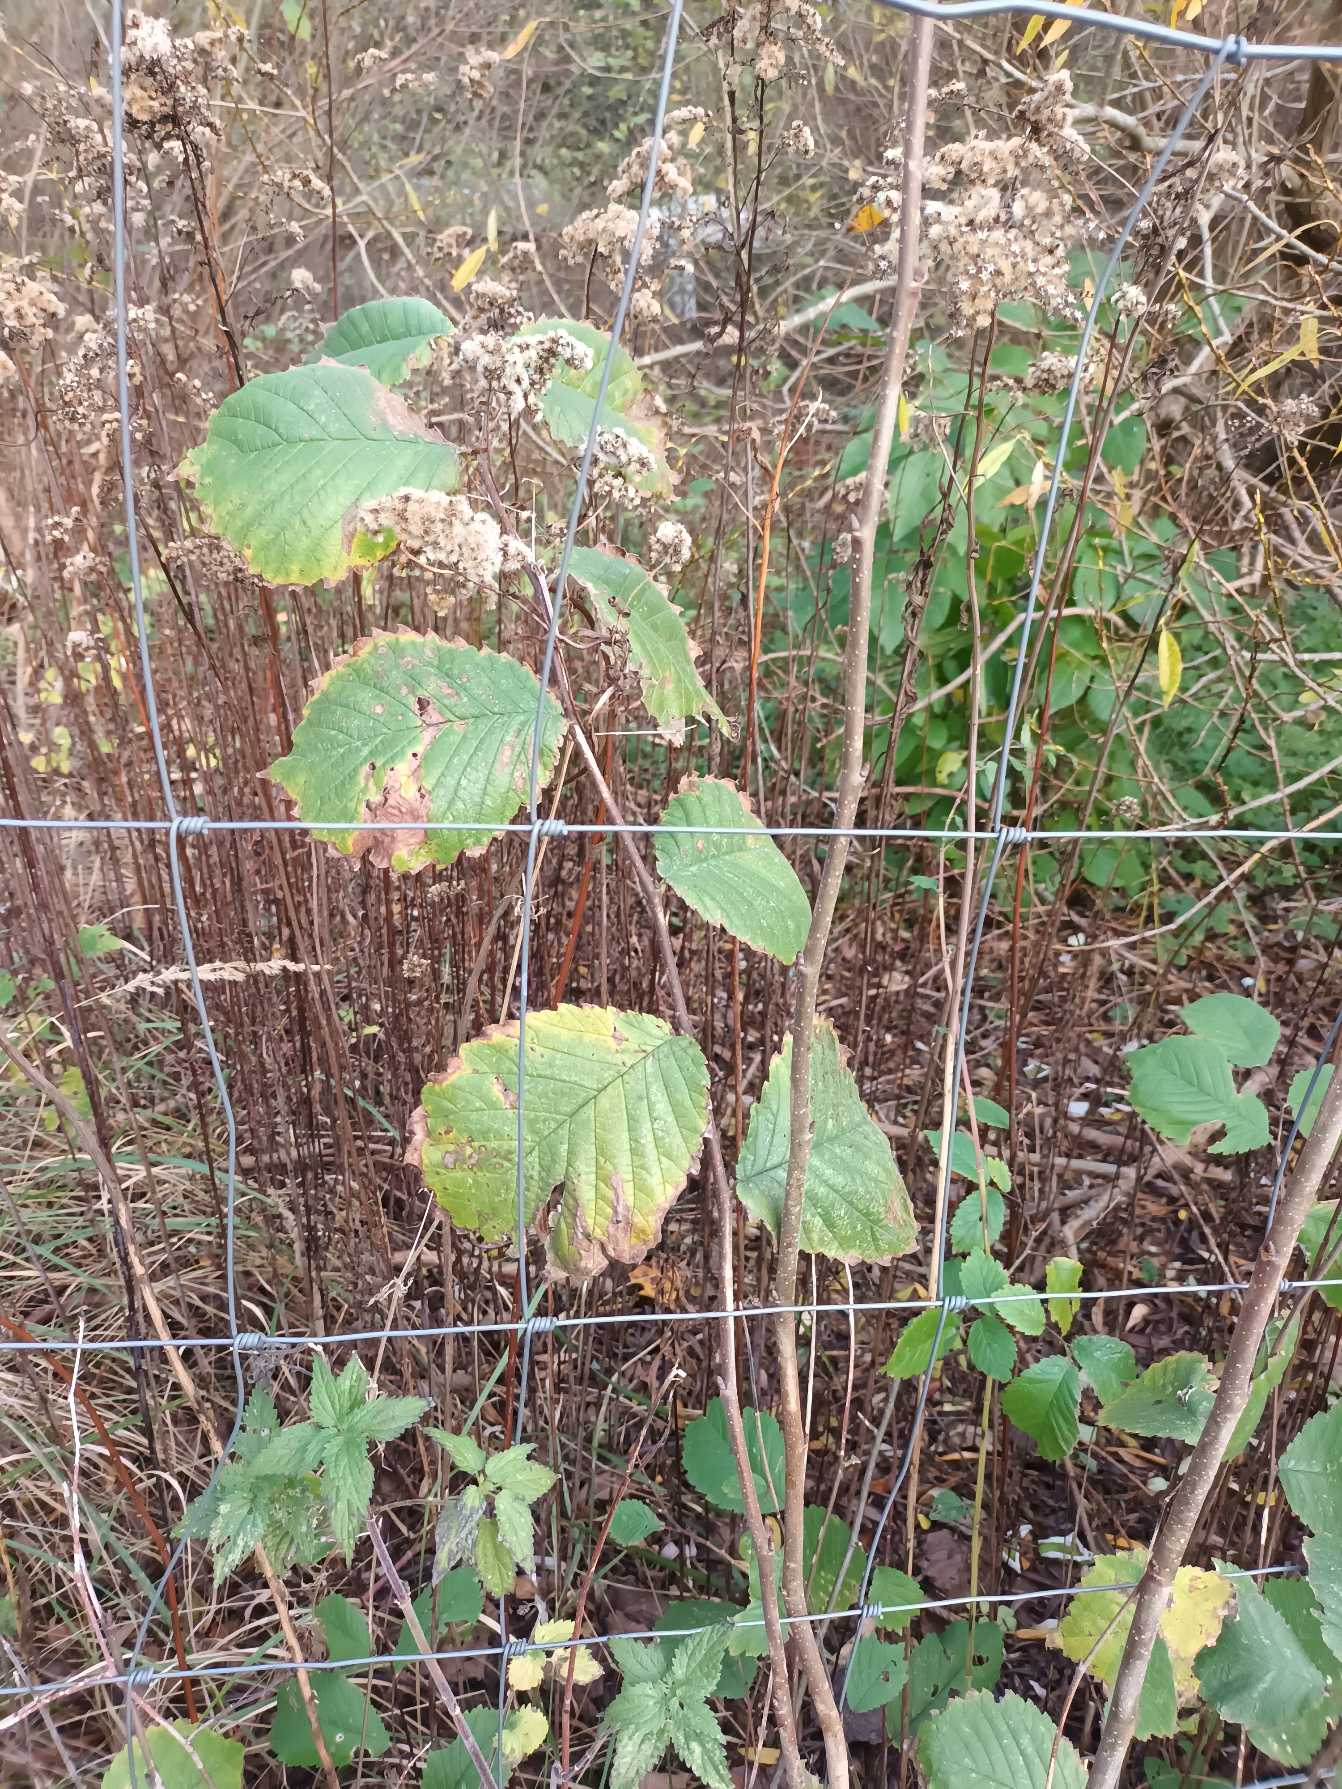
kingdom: Plantae
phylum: Tracheophyta
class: Magnoliopsida
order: Rosales
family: Ulmaceae
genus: Ulmus
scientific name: Ulmus glabra
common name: Skov-elm/storbladet elm
